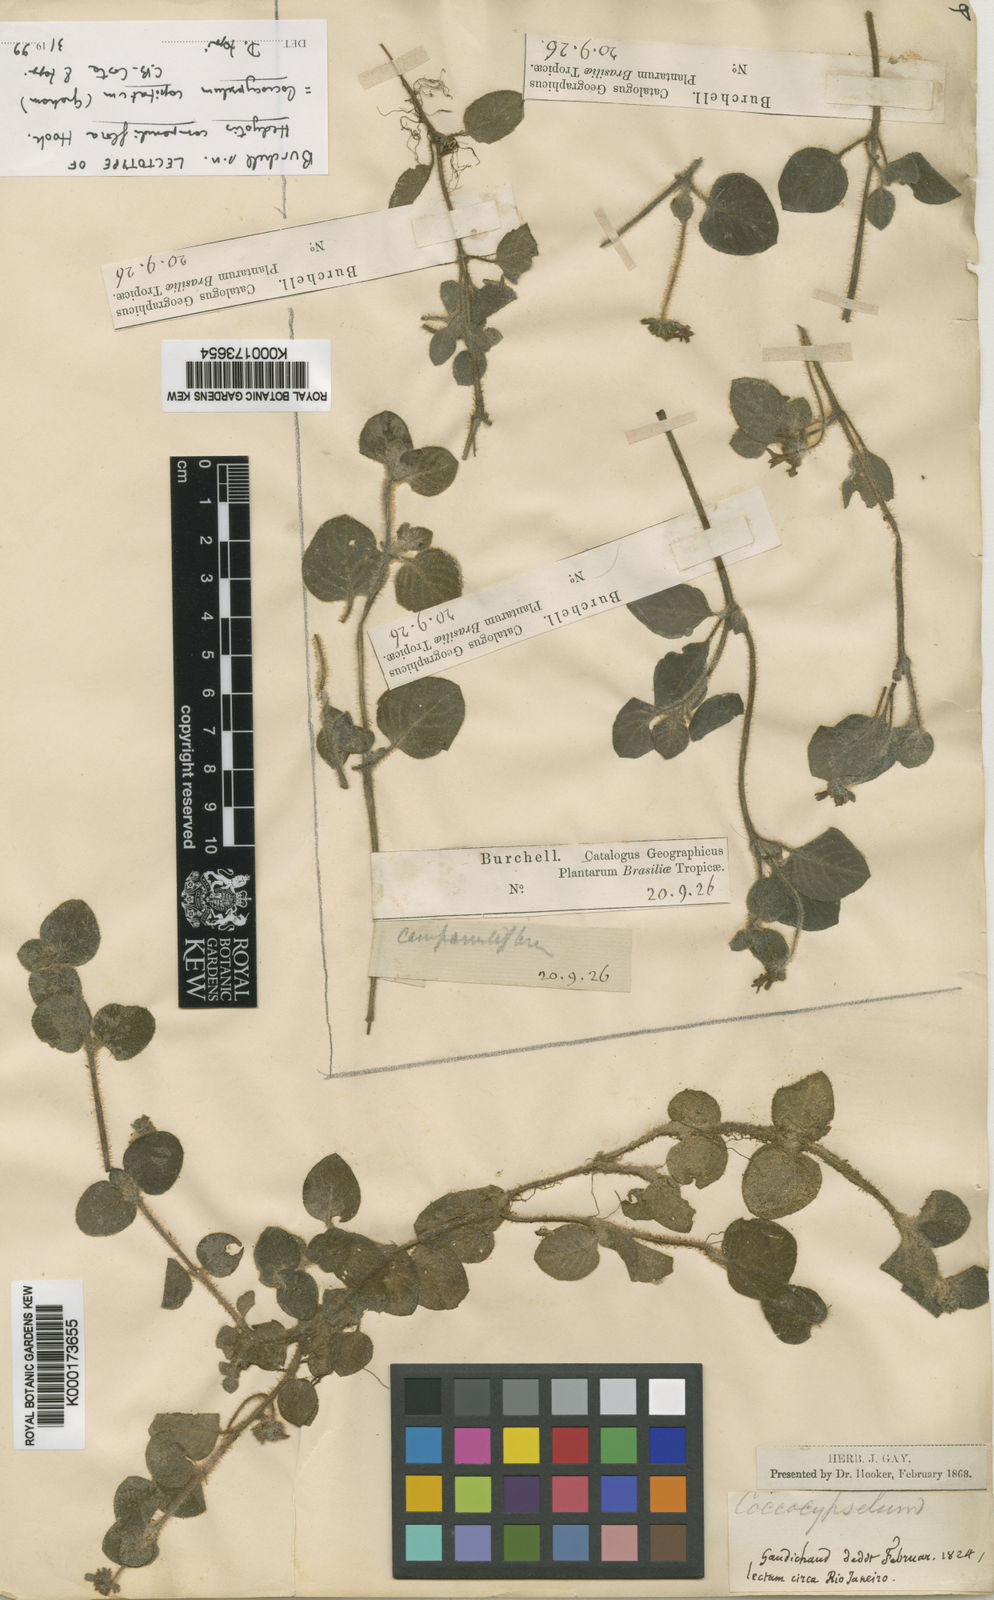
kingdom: Plantae
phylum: Tracheophyta
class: Magnoliopsida
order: Gentianales
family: Rubiaceae
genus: Coccocypselum
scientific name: Coccocypselum
